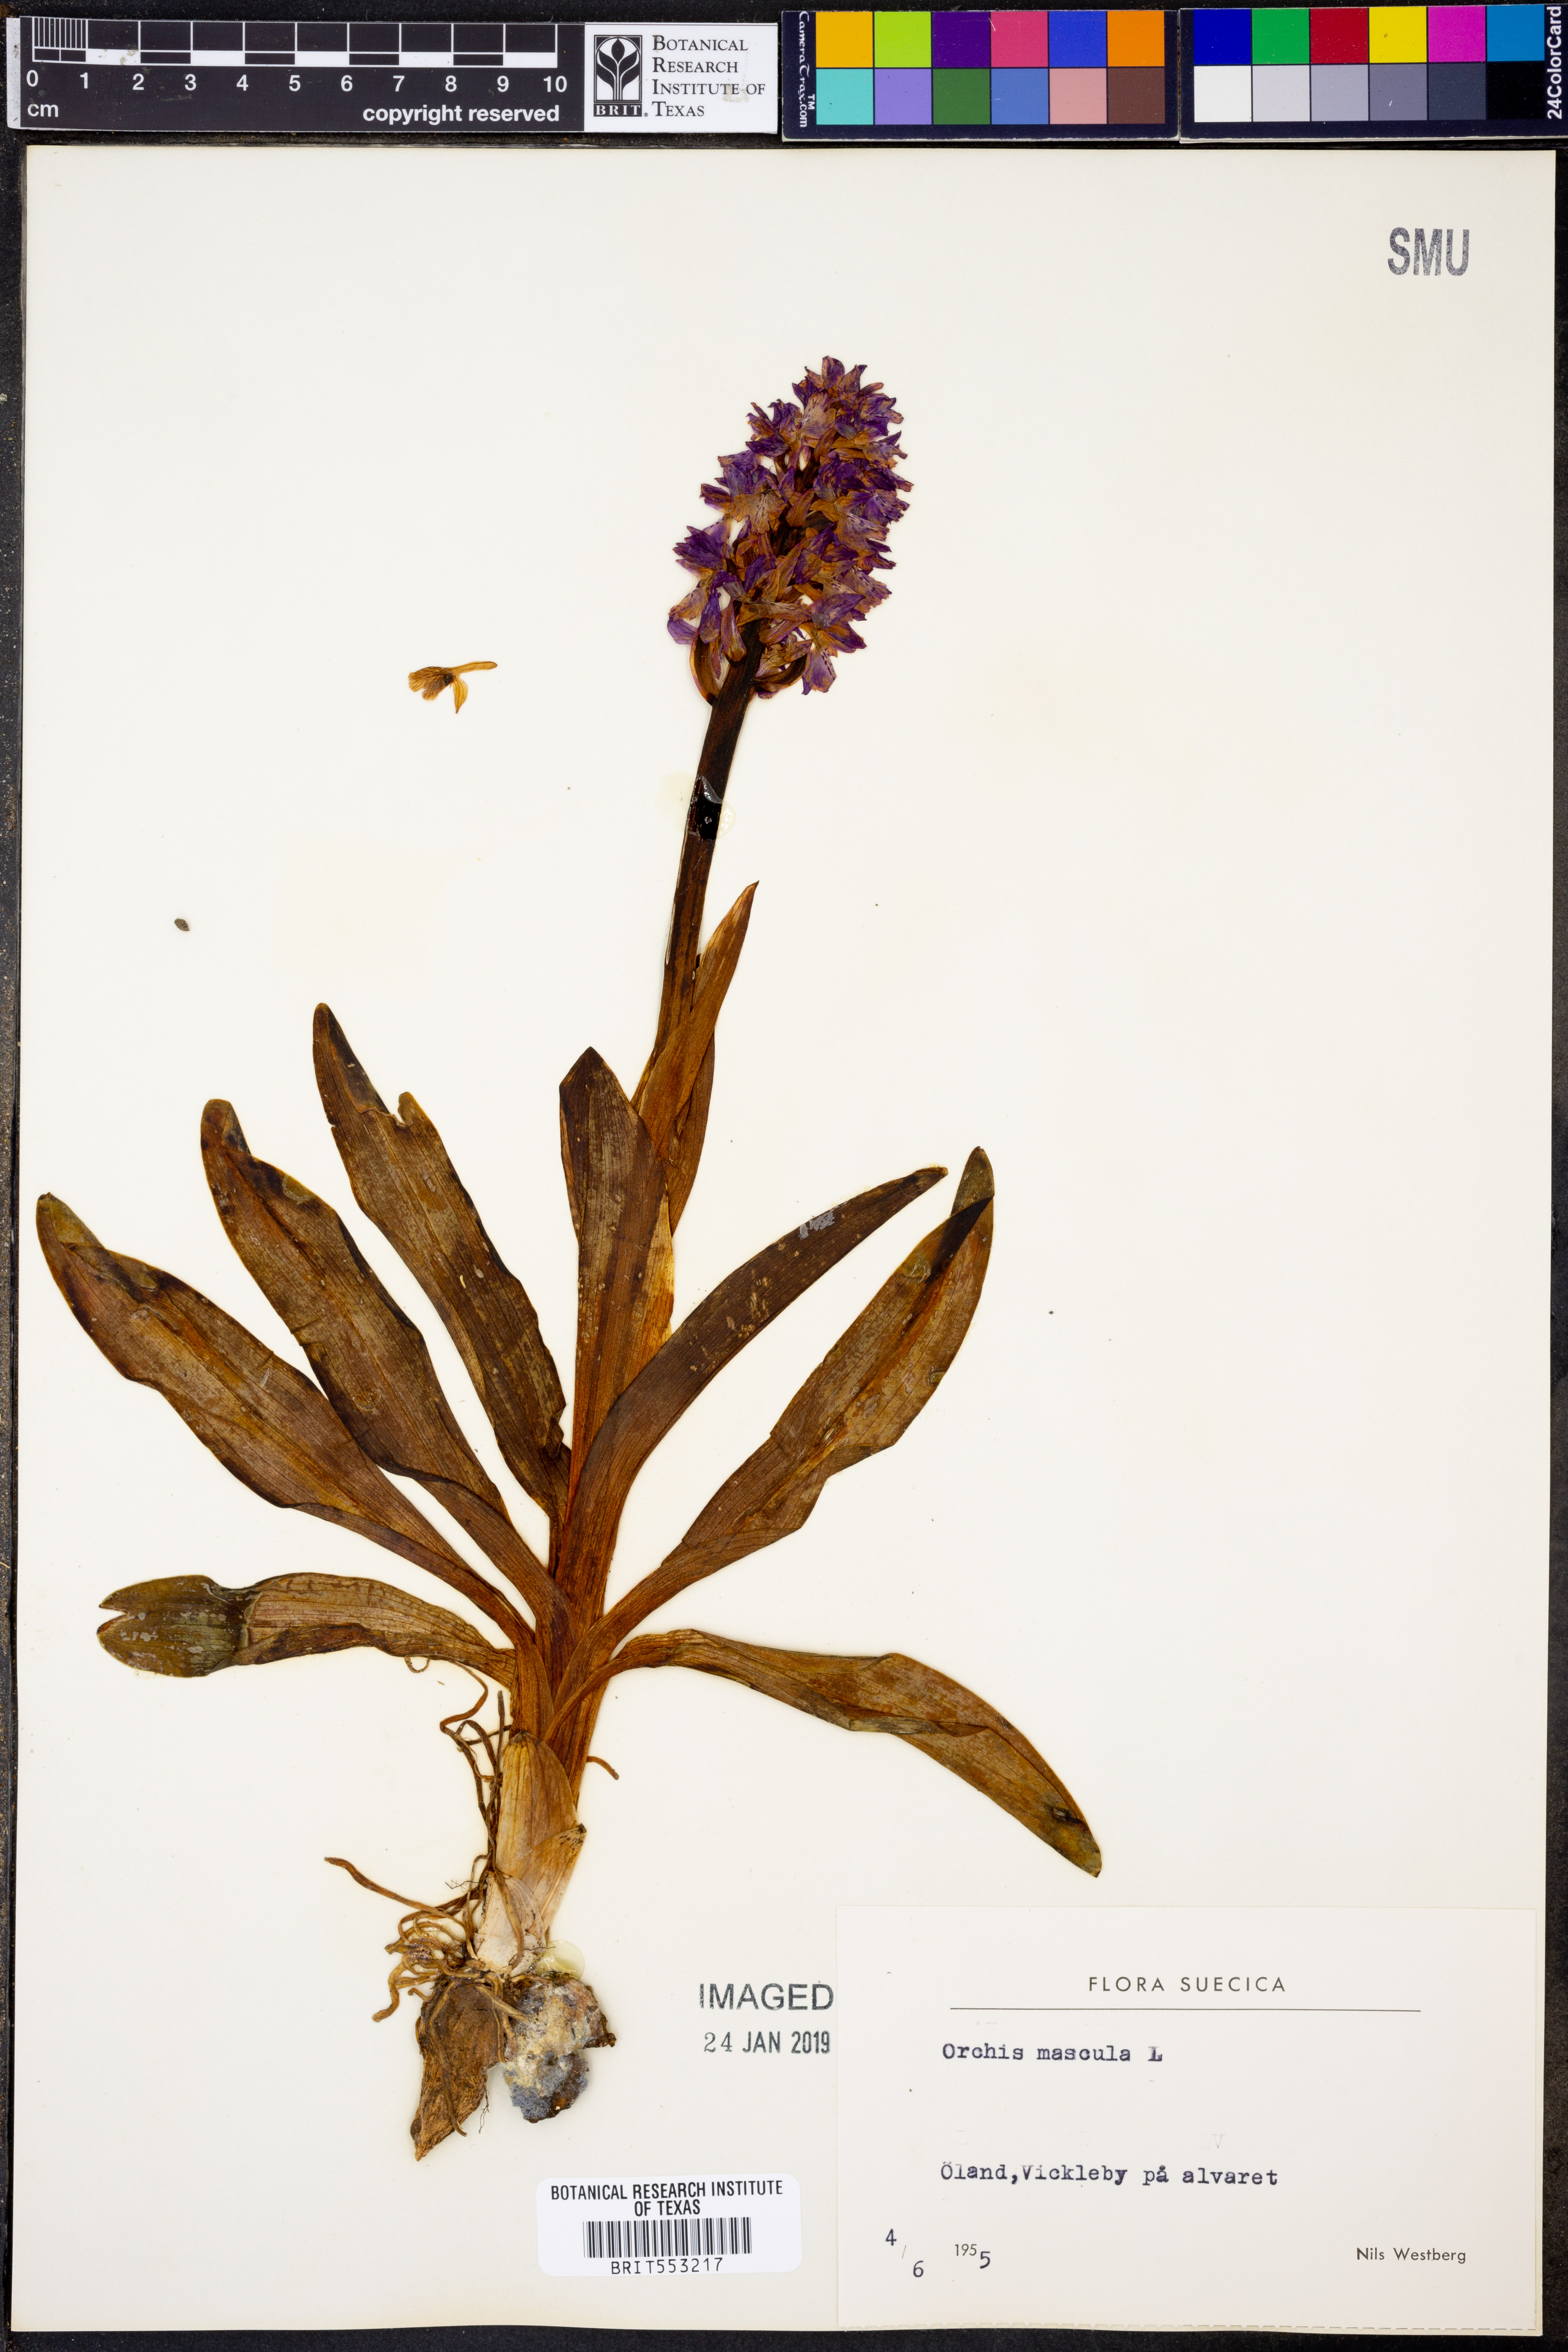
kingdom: Plantae
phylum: Tracheophyta
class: Liliopsida
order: Asparagales
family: Orchidaceae
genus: Orchis
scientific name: Orchis mascula
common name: Early-purple orchid
